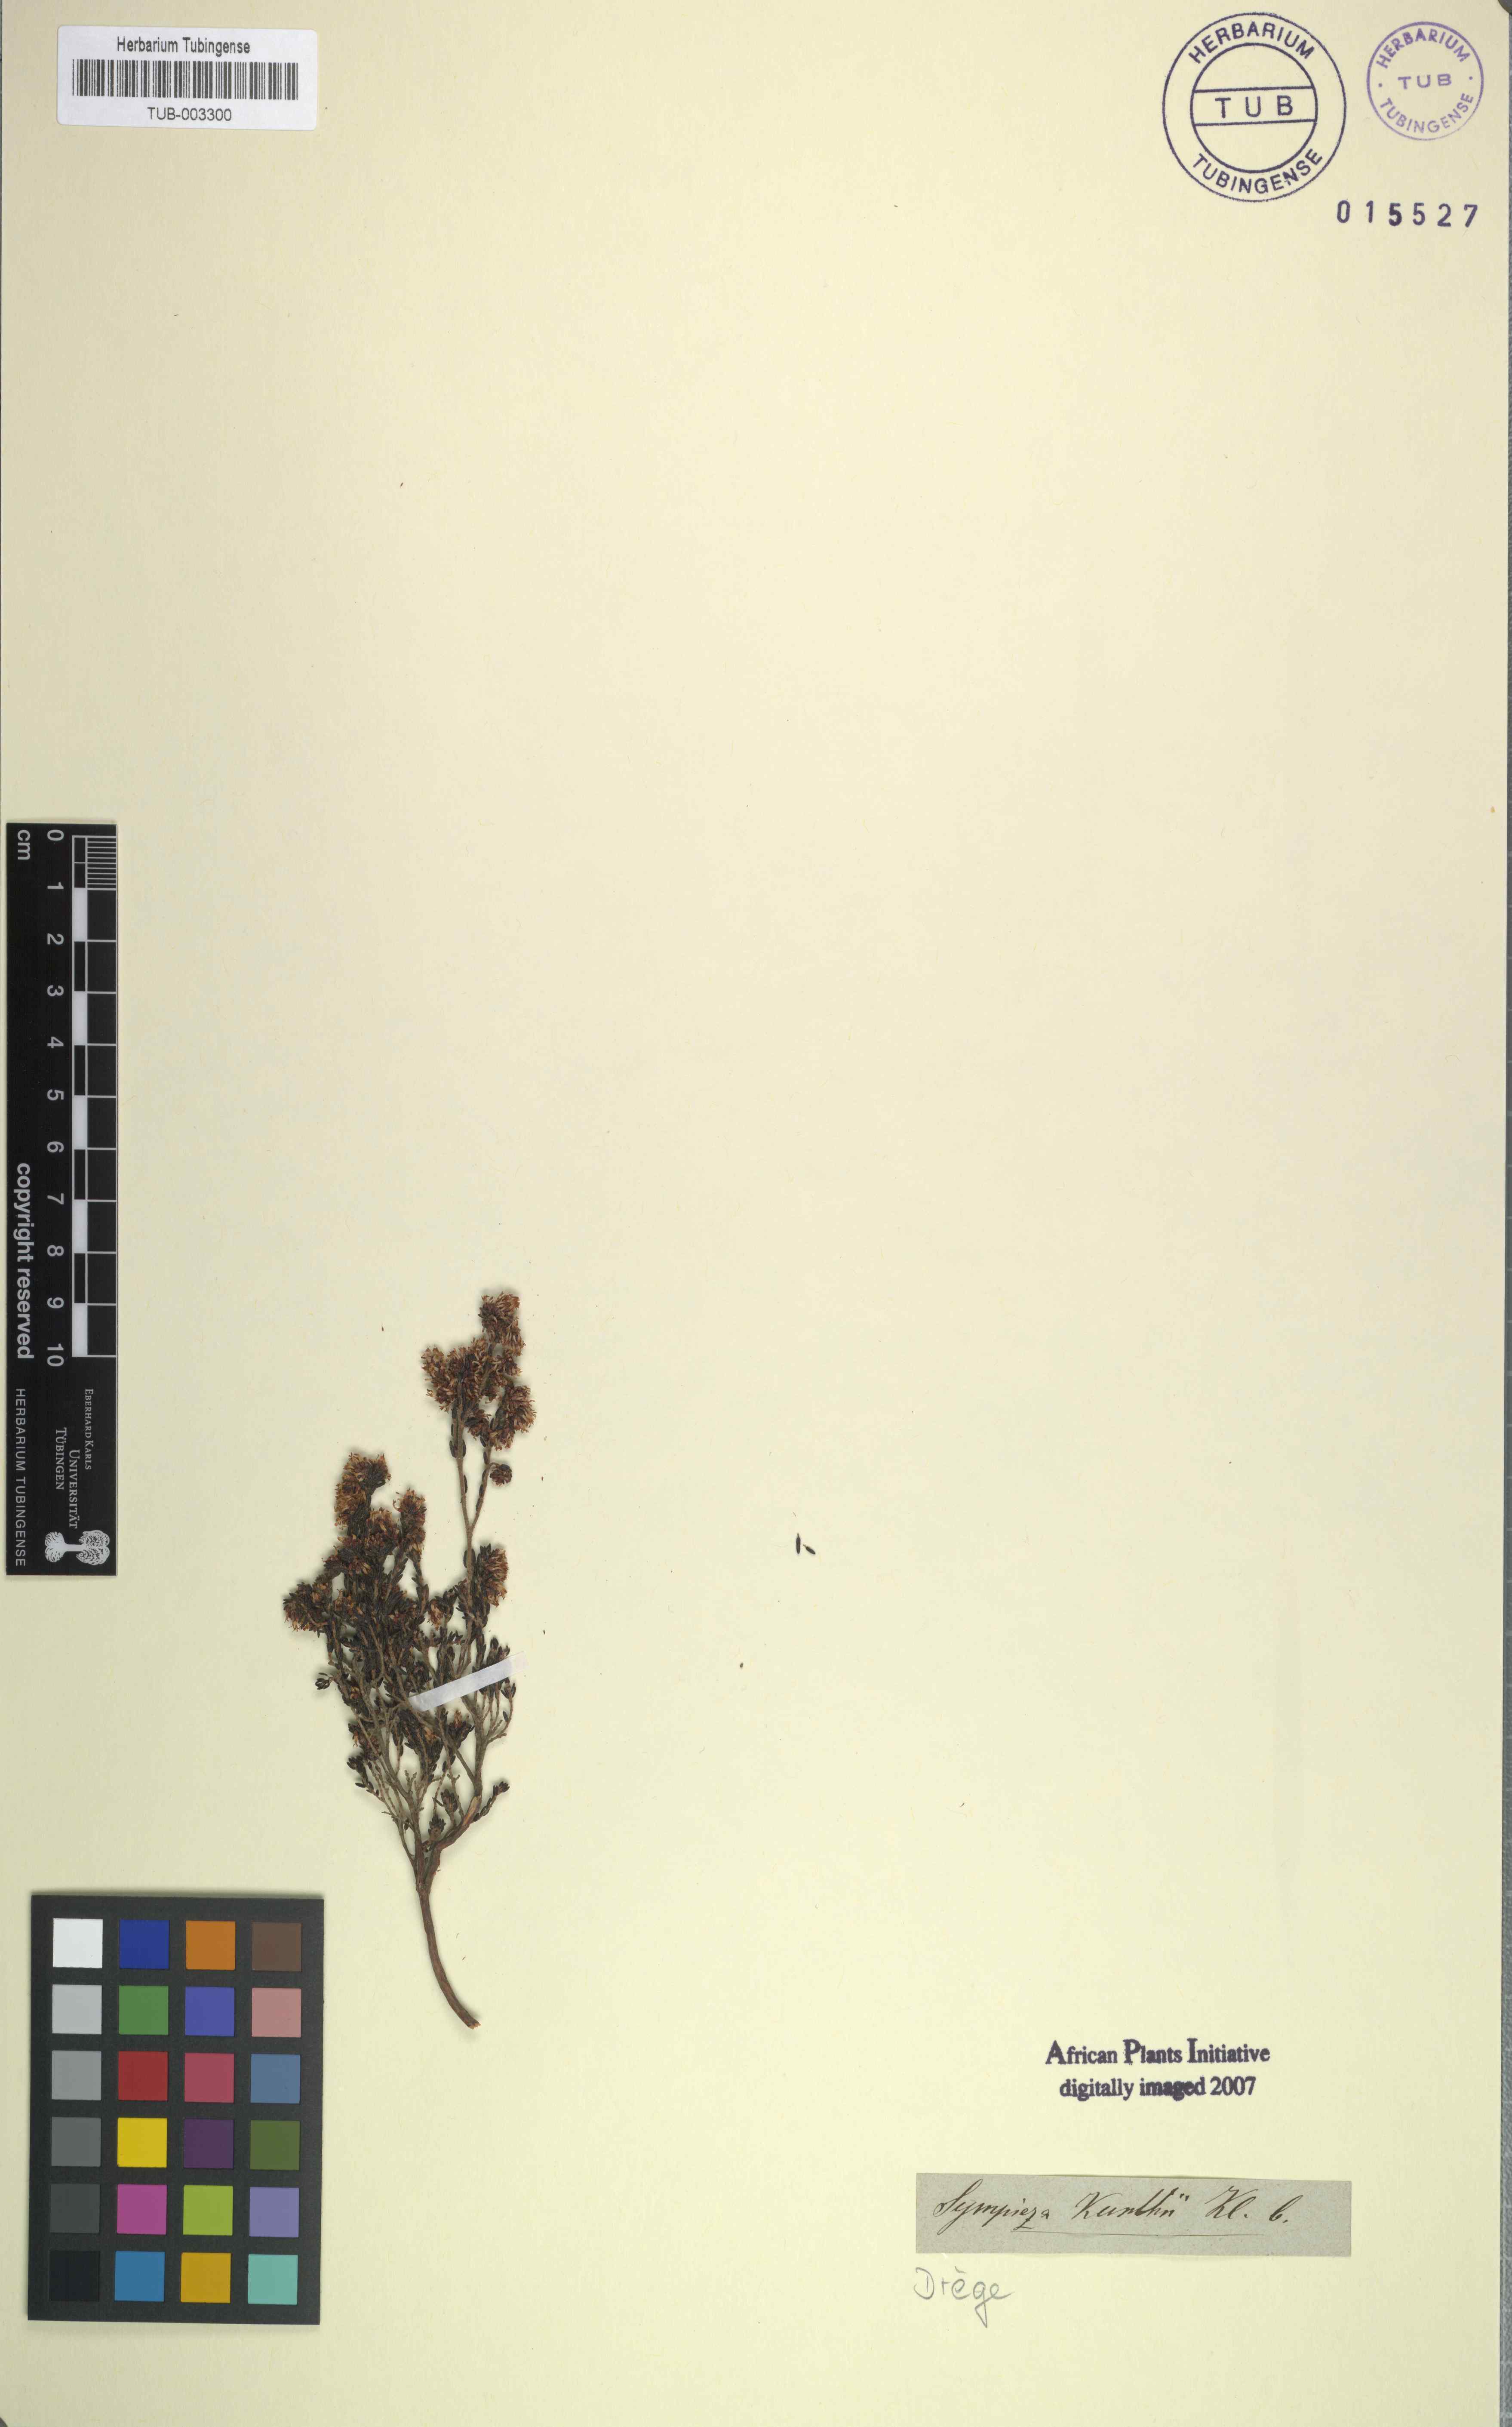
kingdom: Plantae
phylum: Tracheophyta
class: Magnoliopsida
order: Ericales
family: Ericaceae
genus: Erica
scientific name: Erica benthamiana
